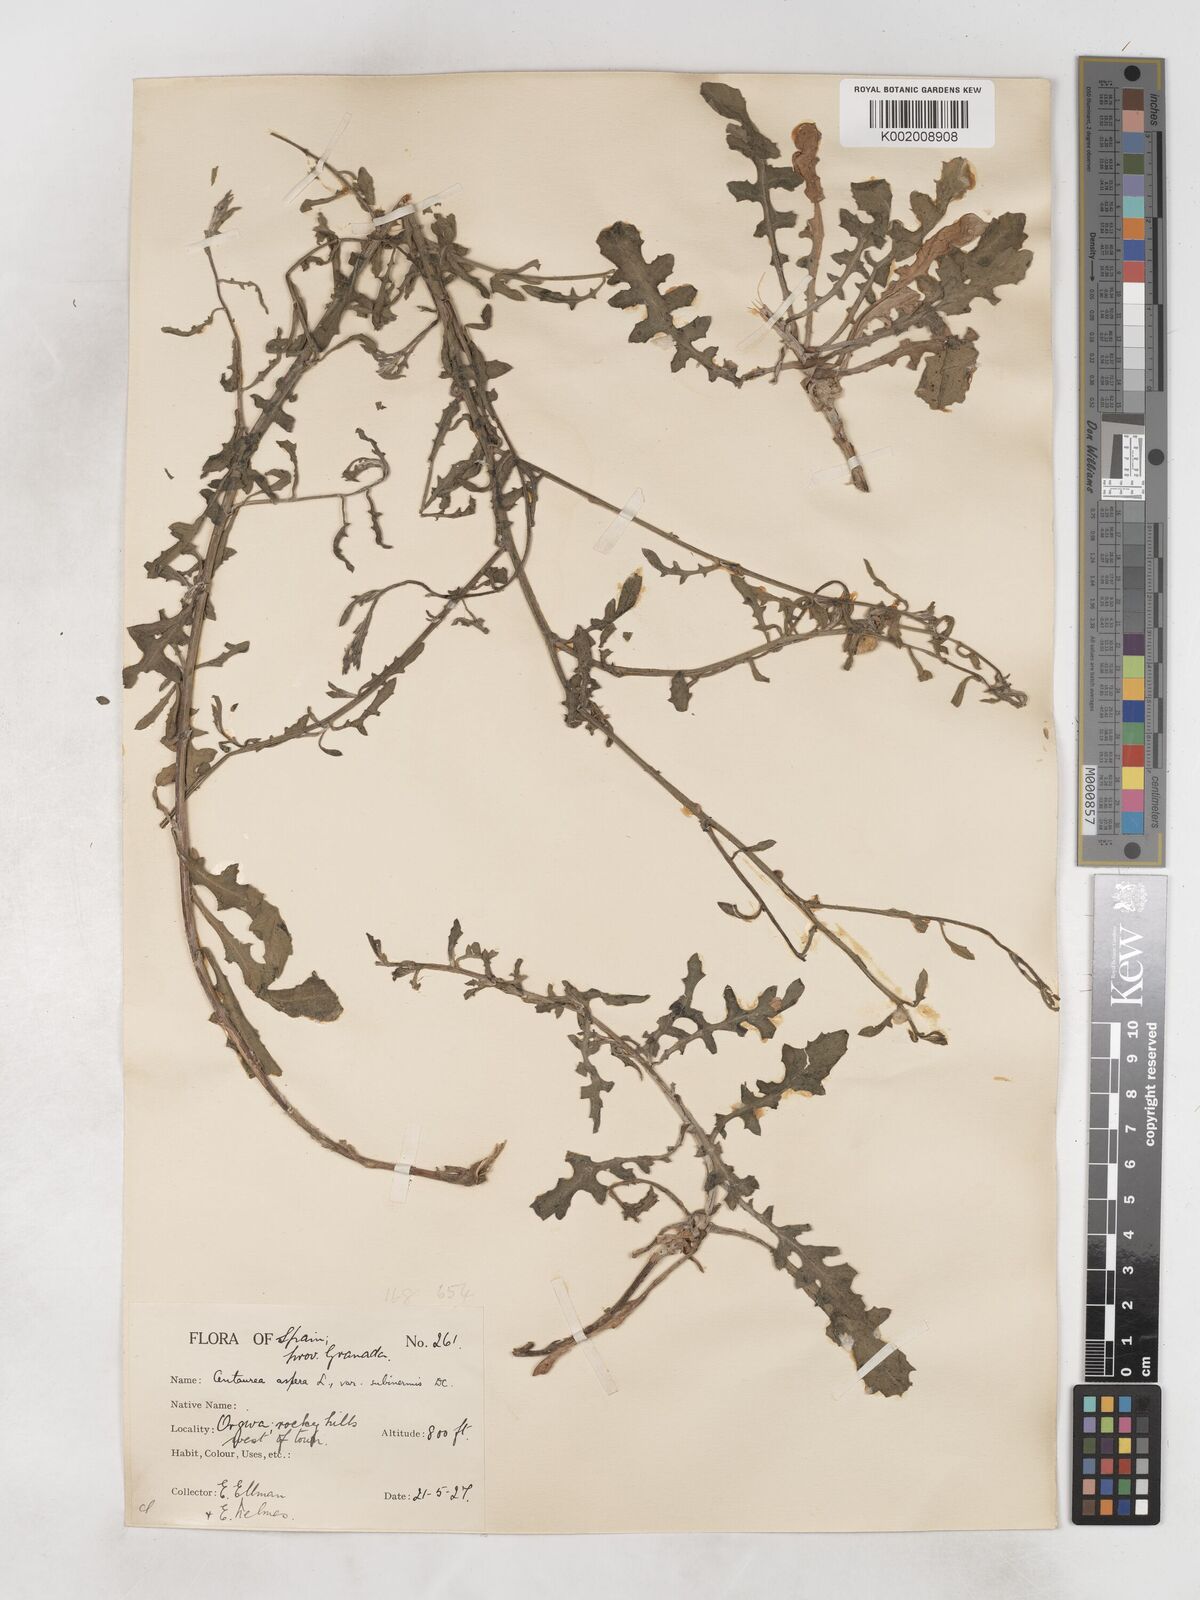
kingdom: Plantae
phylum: Tracheophyta
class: Magnoliopsida
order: Asterales
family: Asteraceae
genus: Centaurea
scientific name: Centaurea aspera
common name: Rough star-thistle
